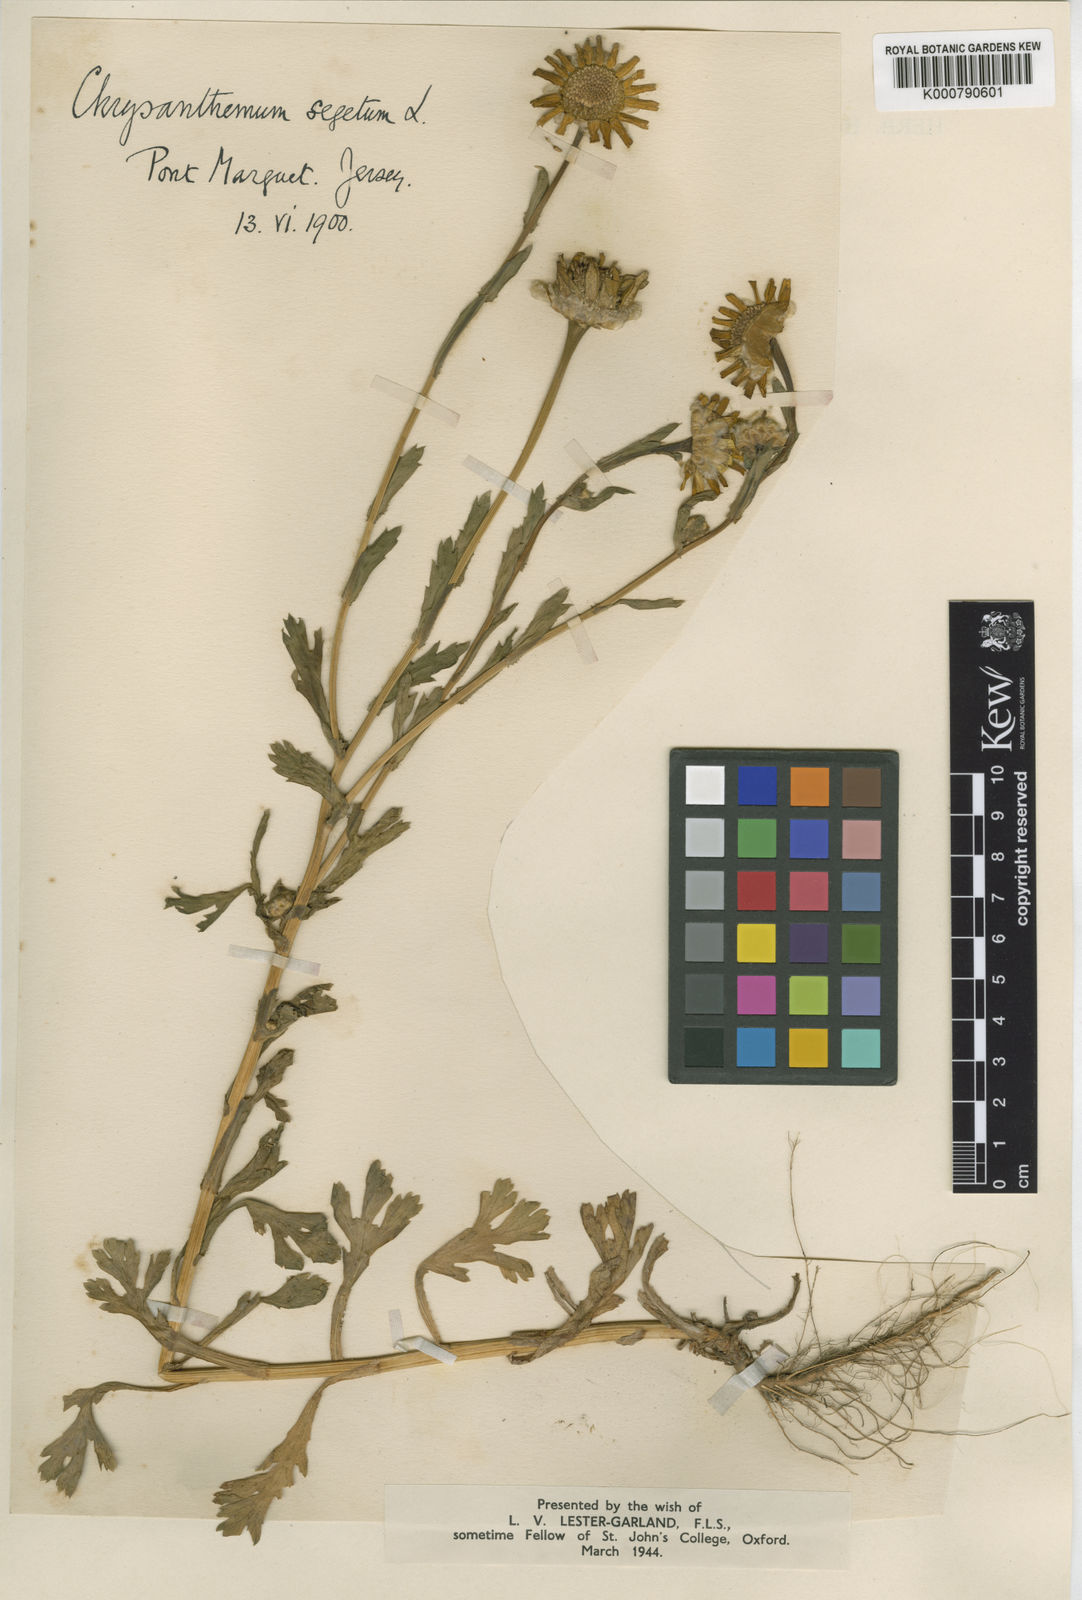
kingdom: Plantae
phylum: Tracheophyta
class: Magnoliopsida
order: Asterales
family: Asteraceae
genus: Glebionis
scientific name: Glebionis
